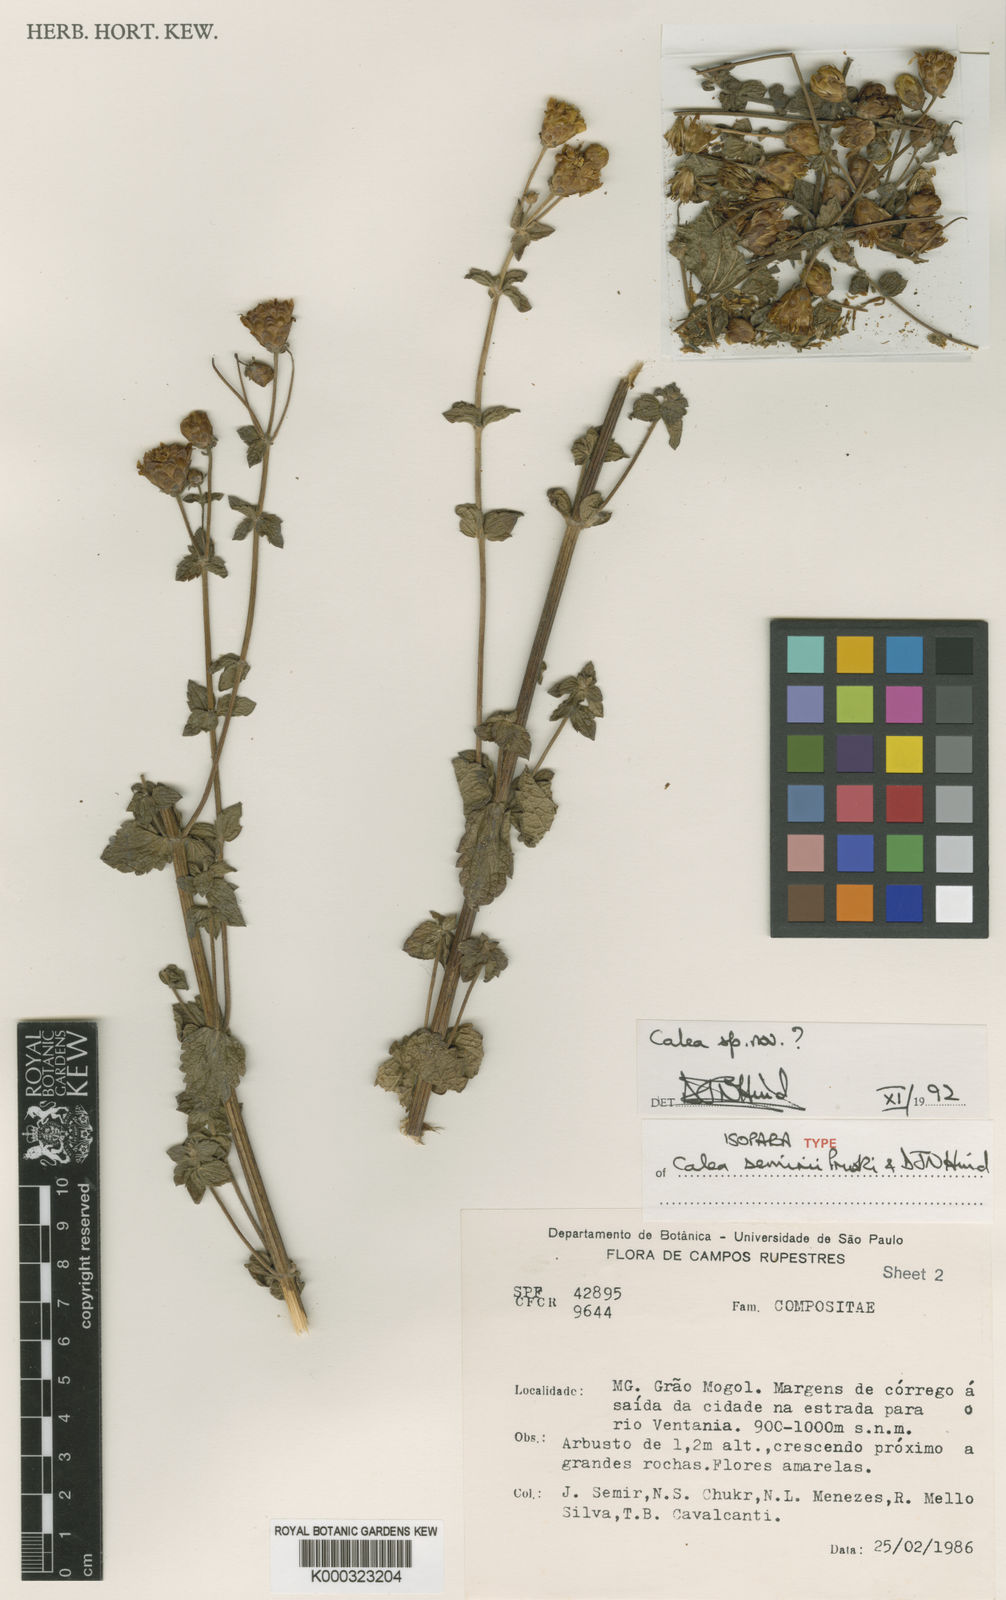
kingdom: Plantae
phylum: Tracheophyta
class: Magnoliopsida
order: Asterales
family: Asteraceae
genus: Calea
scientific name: Calea semirii
